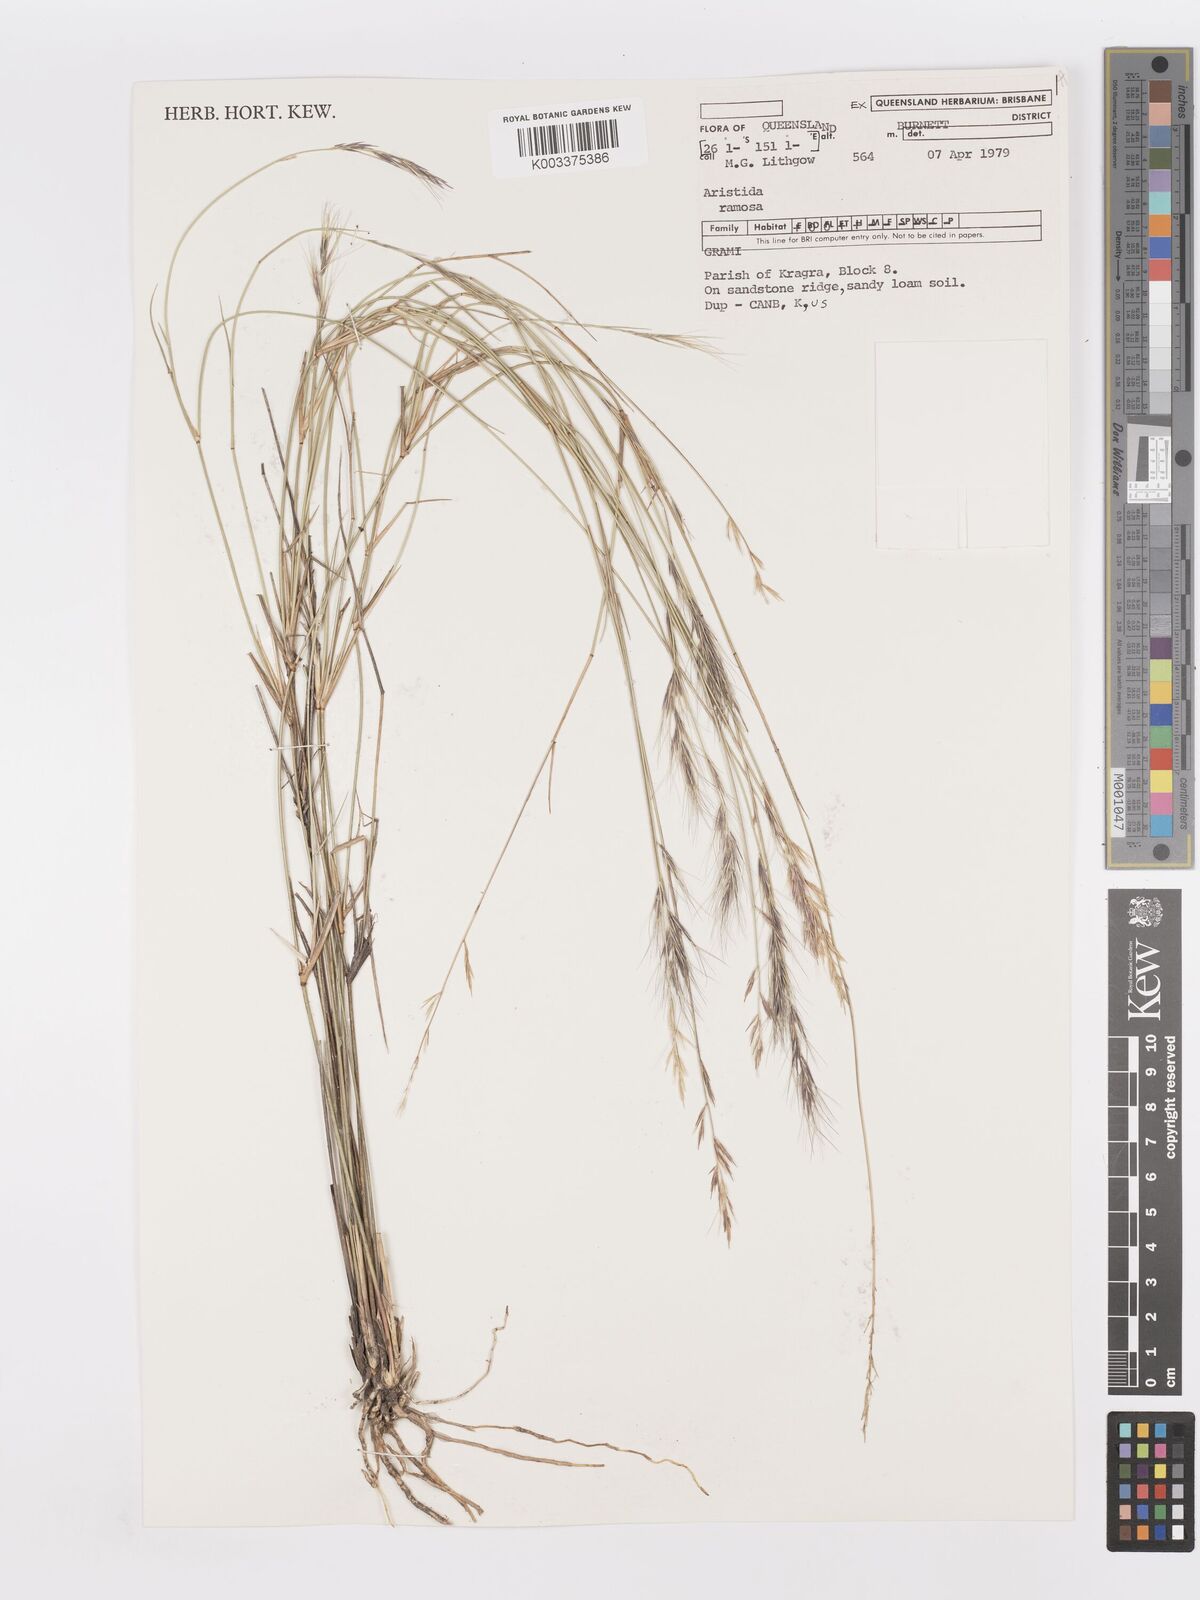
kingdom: Plantae
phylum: Tracheophyta
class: Liliopsida
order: Poales
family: Poaceae
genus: Aristida
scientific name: Aristida ramosa
